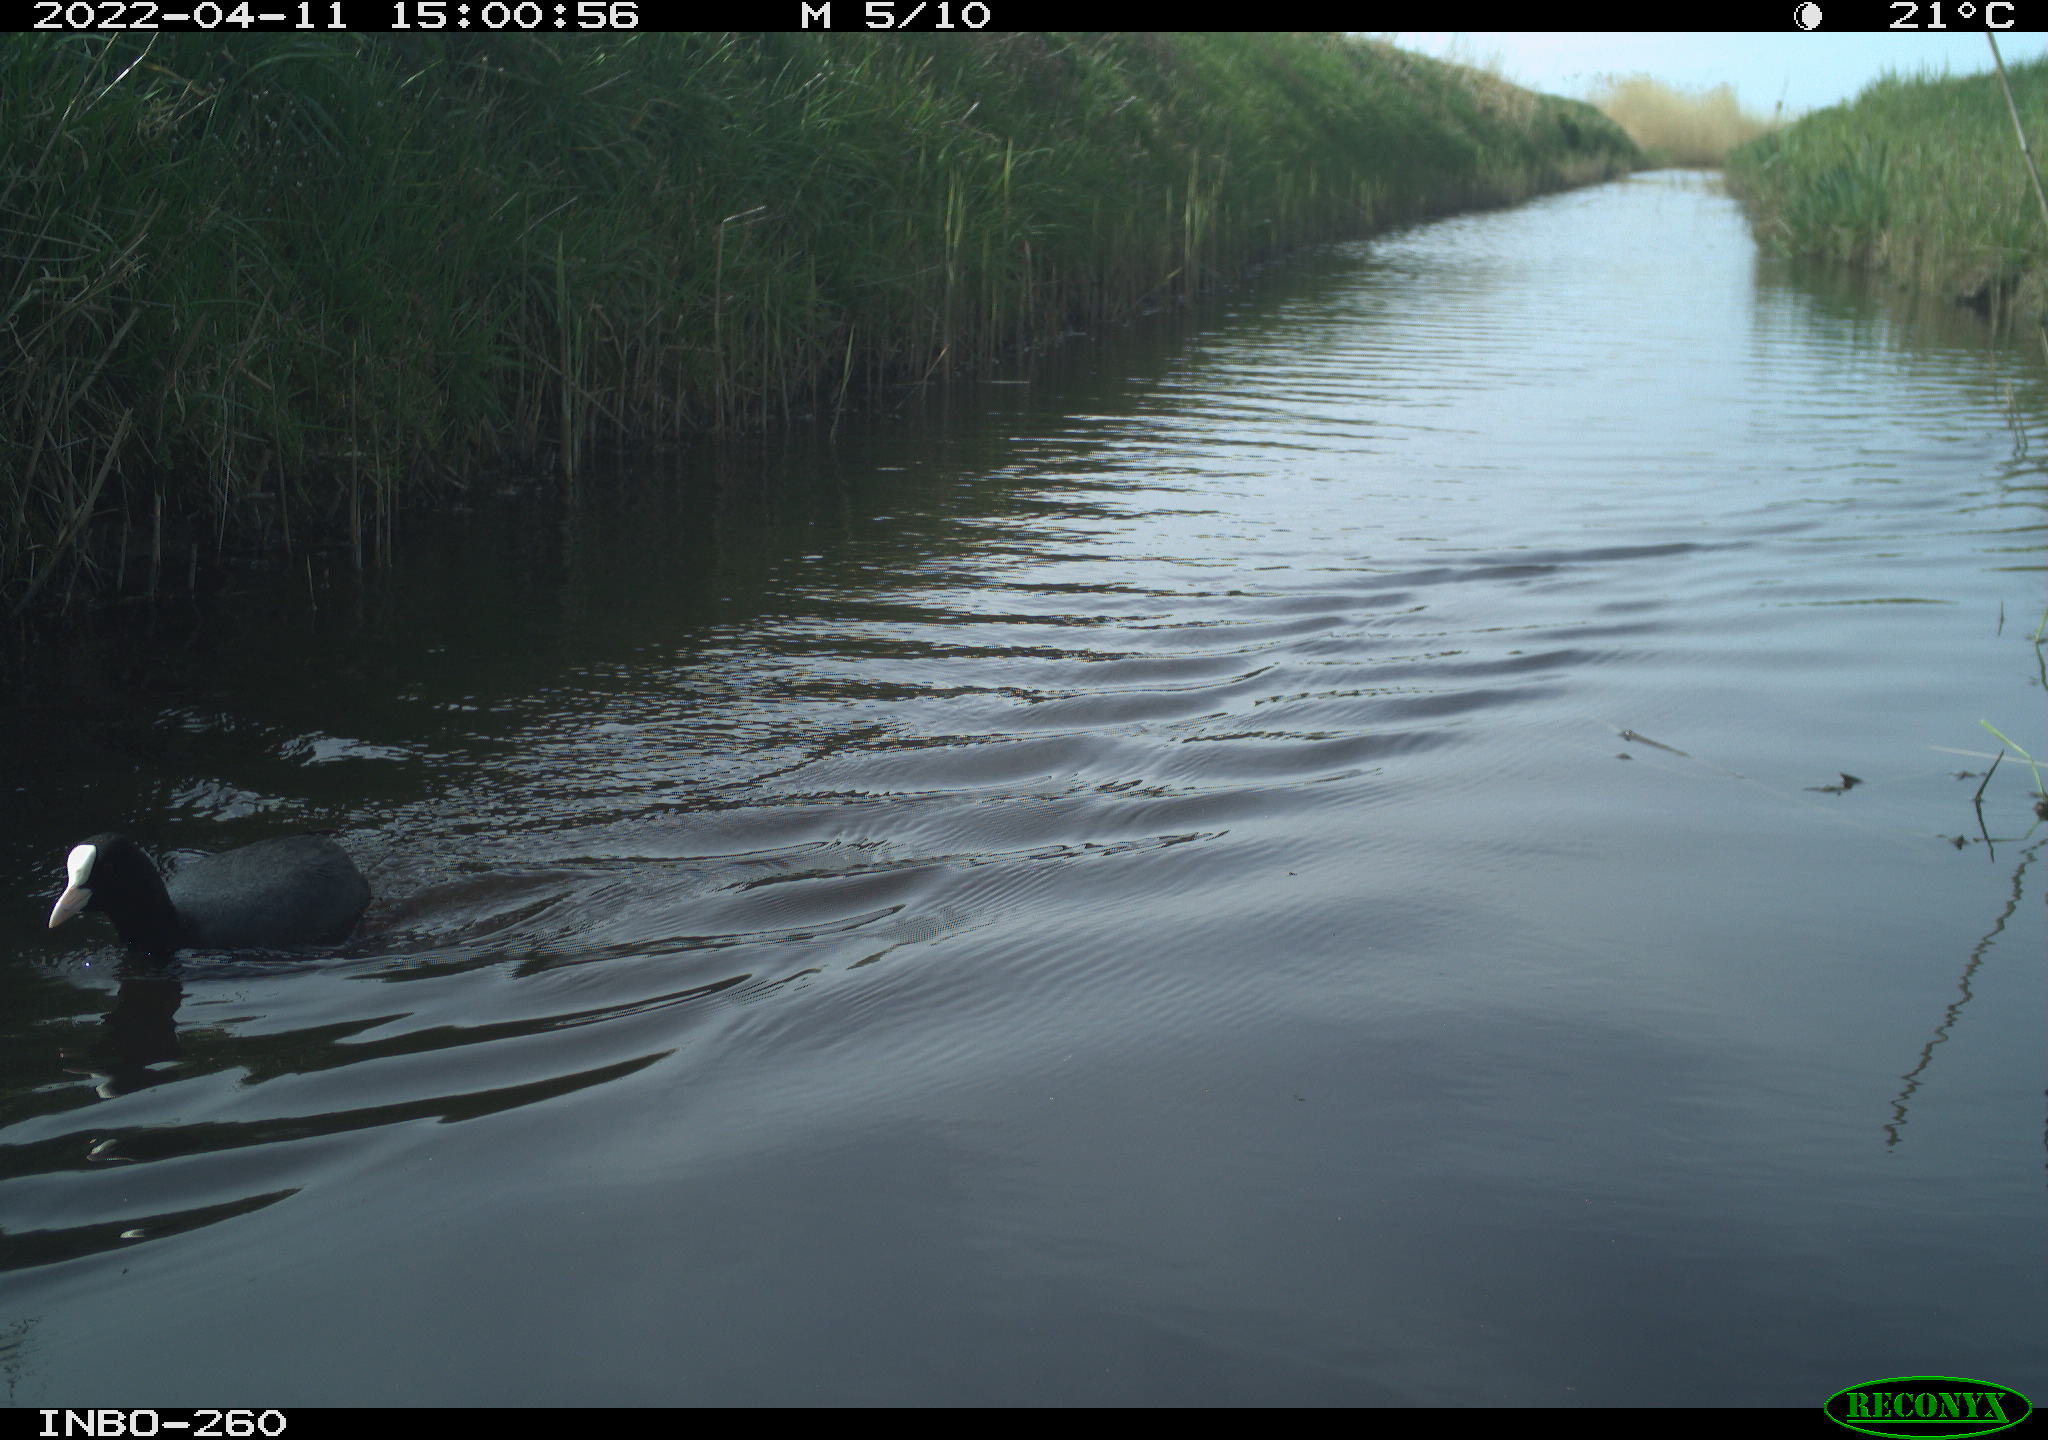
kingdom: Animalia
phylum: Chordata
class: Aves
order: Gruiformes
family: Rallidae
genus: Fulica
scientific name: Fulica atra
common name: Eurasian coot
